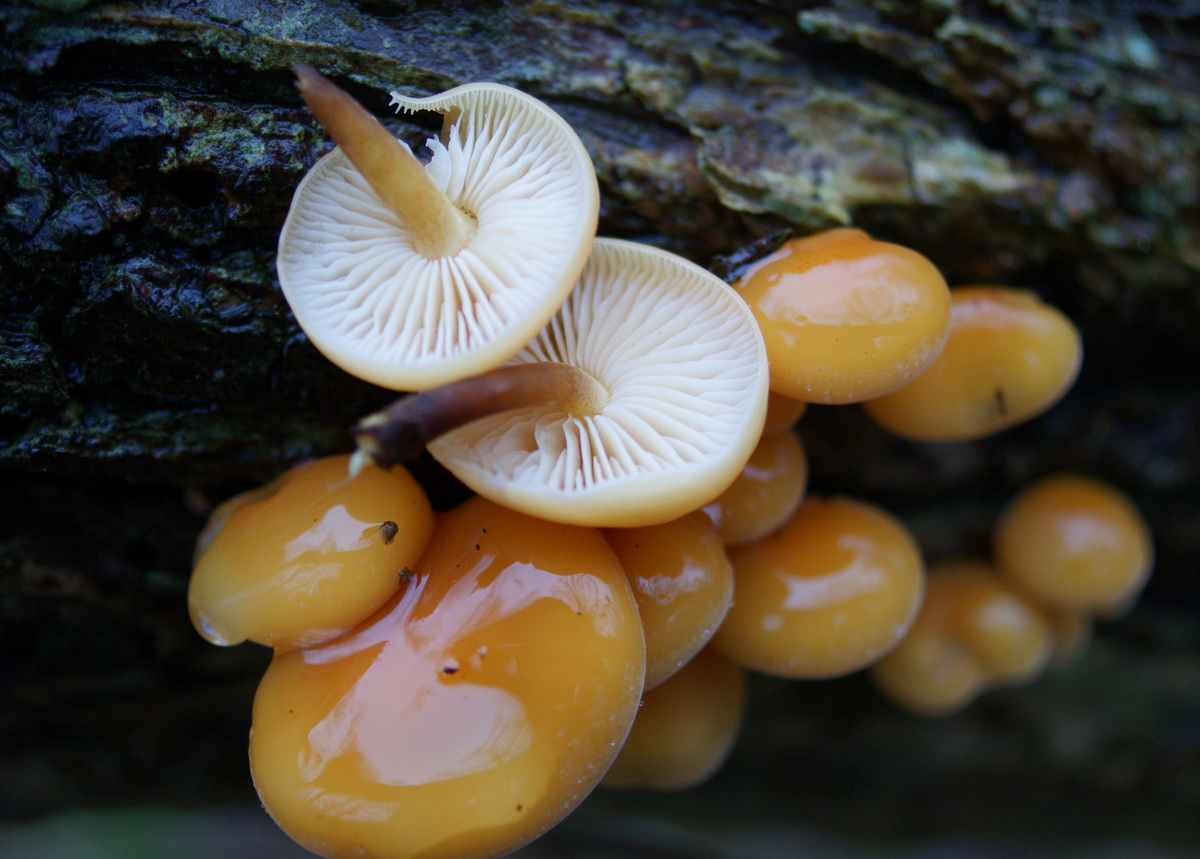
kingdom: Fungi
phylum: Basidiomycota
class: Agaricomycetes
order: Agaricales
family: Physalacriaceae
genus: Flammulina
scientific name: Flammulina velutipes
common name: gul fløjlsfod
